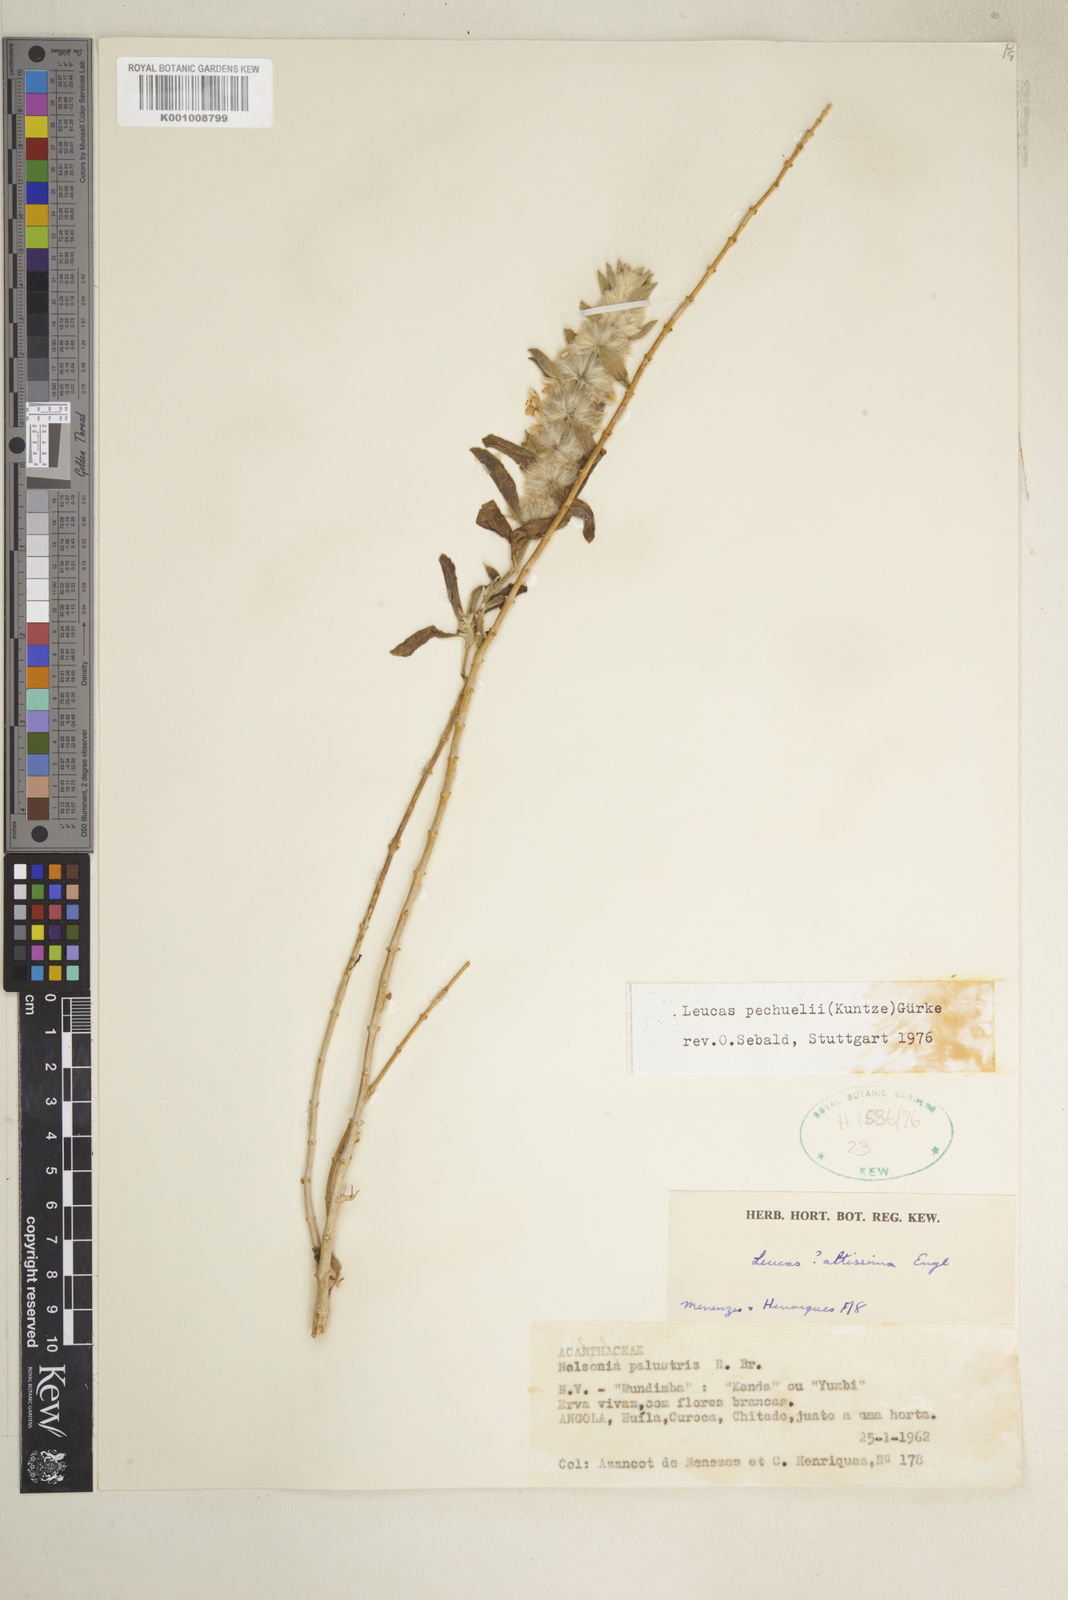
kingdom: Plantae
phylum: Tracheophyta
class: Magnoliopsida
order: Lamiales
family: Lamiaceae
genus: Leucas
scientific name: Leucas pechuelii
